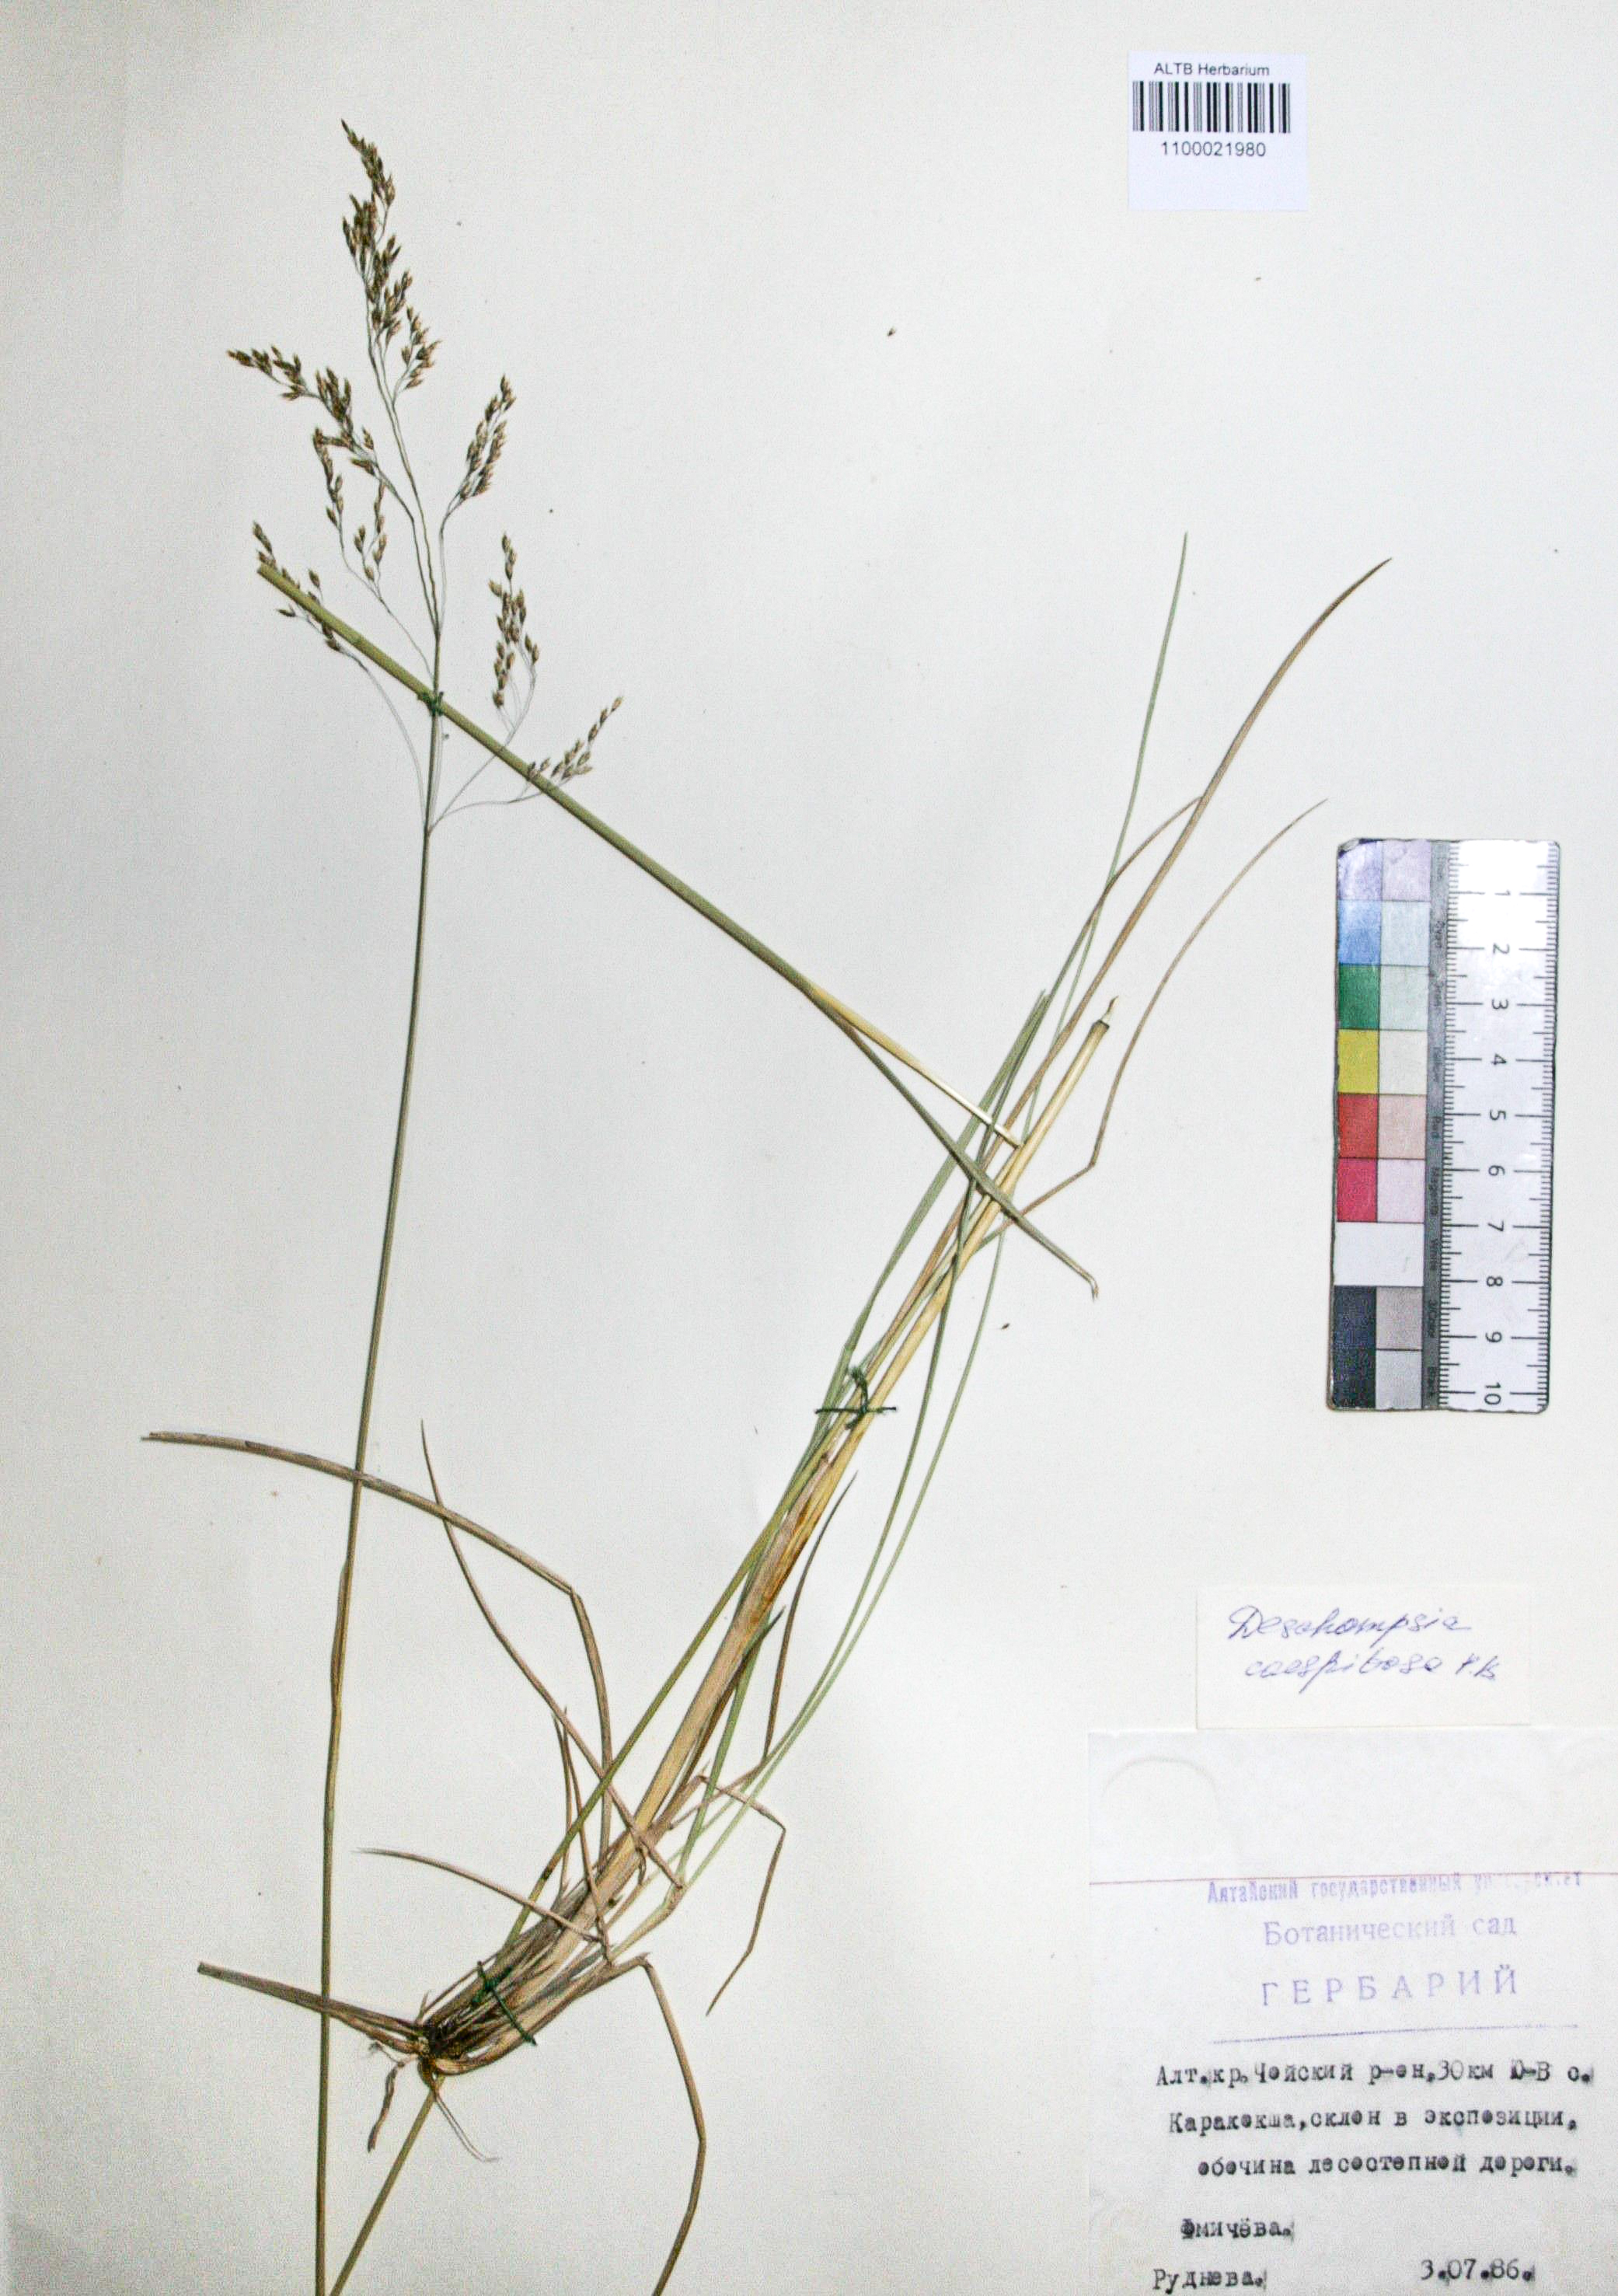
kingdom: Plantae
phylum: Tracheophyta
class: Liliopsida
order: Poales
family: Poaceae
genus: Deschampsia
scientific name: Deschampsia cespitosa
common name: Tufted hair-grass
